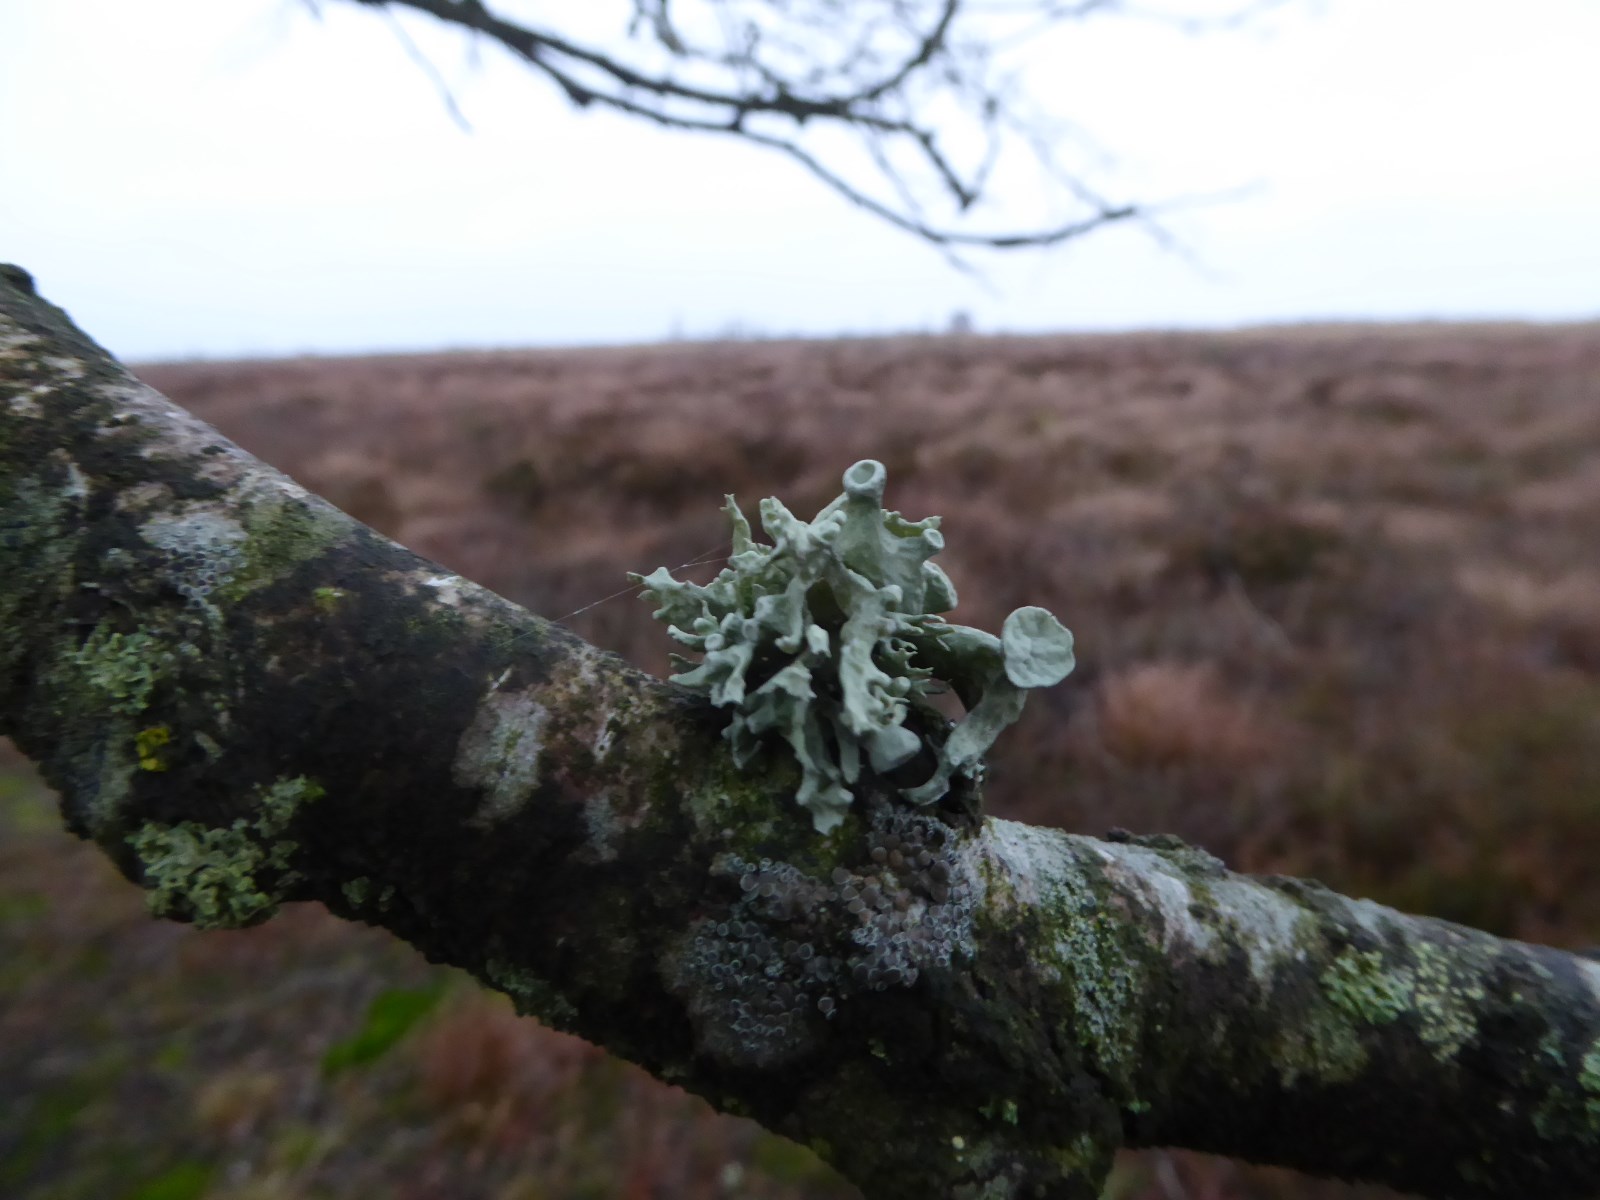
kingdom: Fungi
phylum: Ascomycota
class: Lecanoromycetes
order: Lecanorales
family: Ramalinaceae
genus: Ramalina
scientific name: Ramalina fastigiata
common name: tue-grenlav
